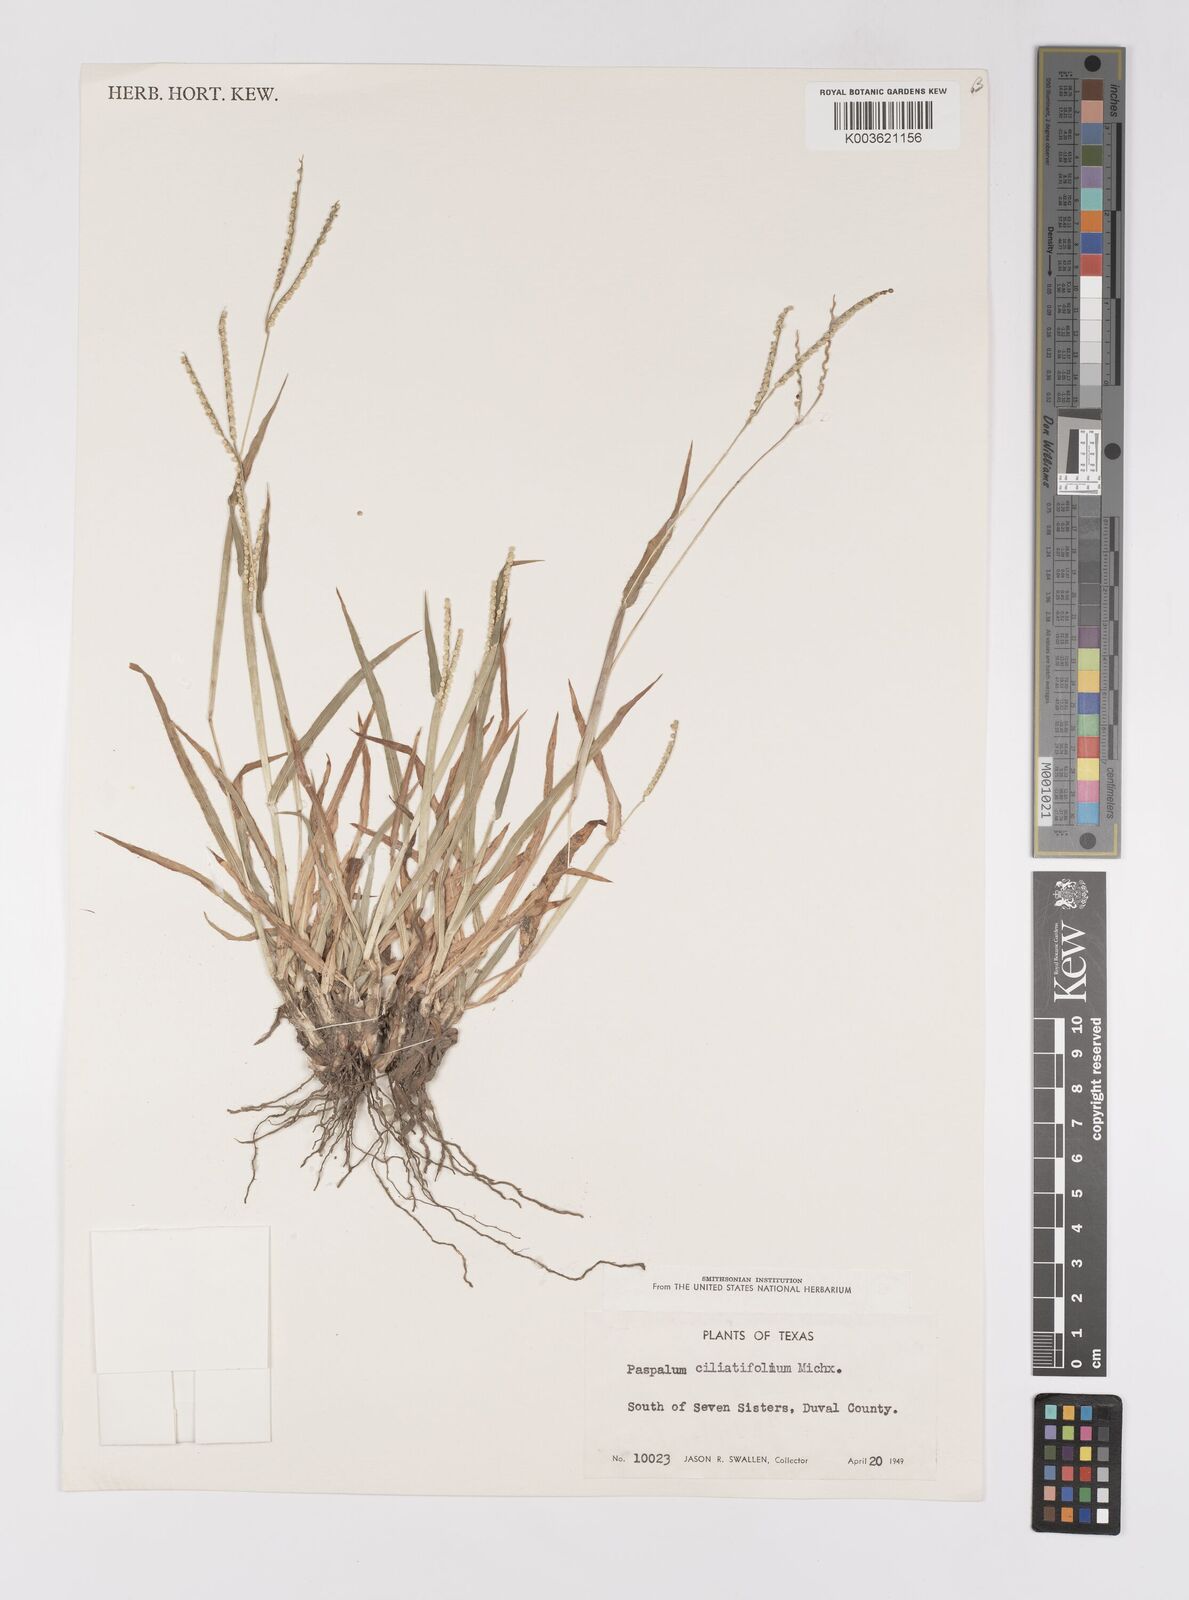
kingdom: Plantae
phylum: Tracheophyta
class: Liliopsida
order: Poales
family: Poaceae
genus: Paspalum
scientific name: Paspalum setaceum
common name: Slender paspalum
